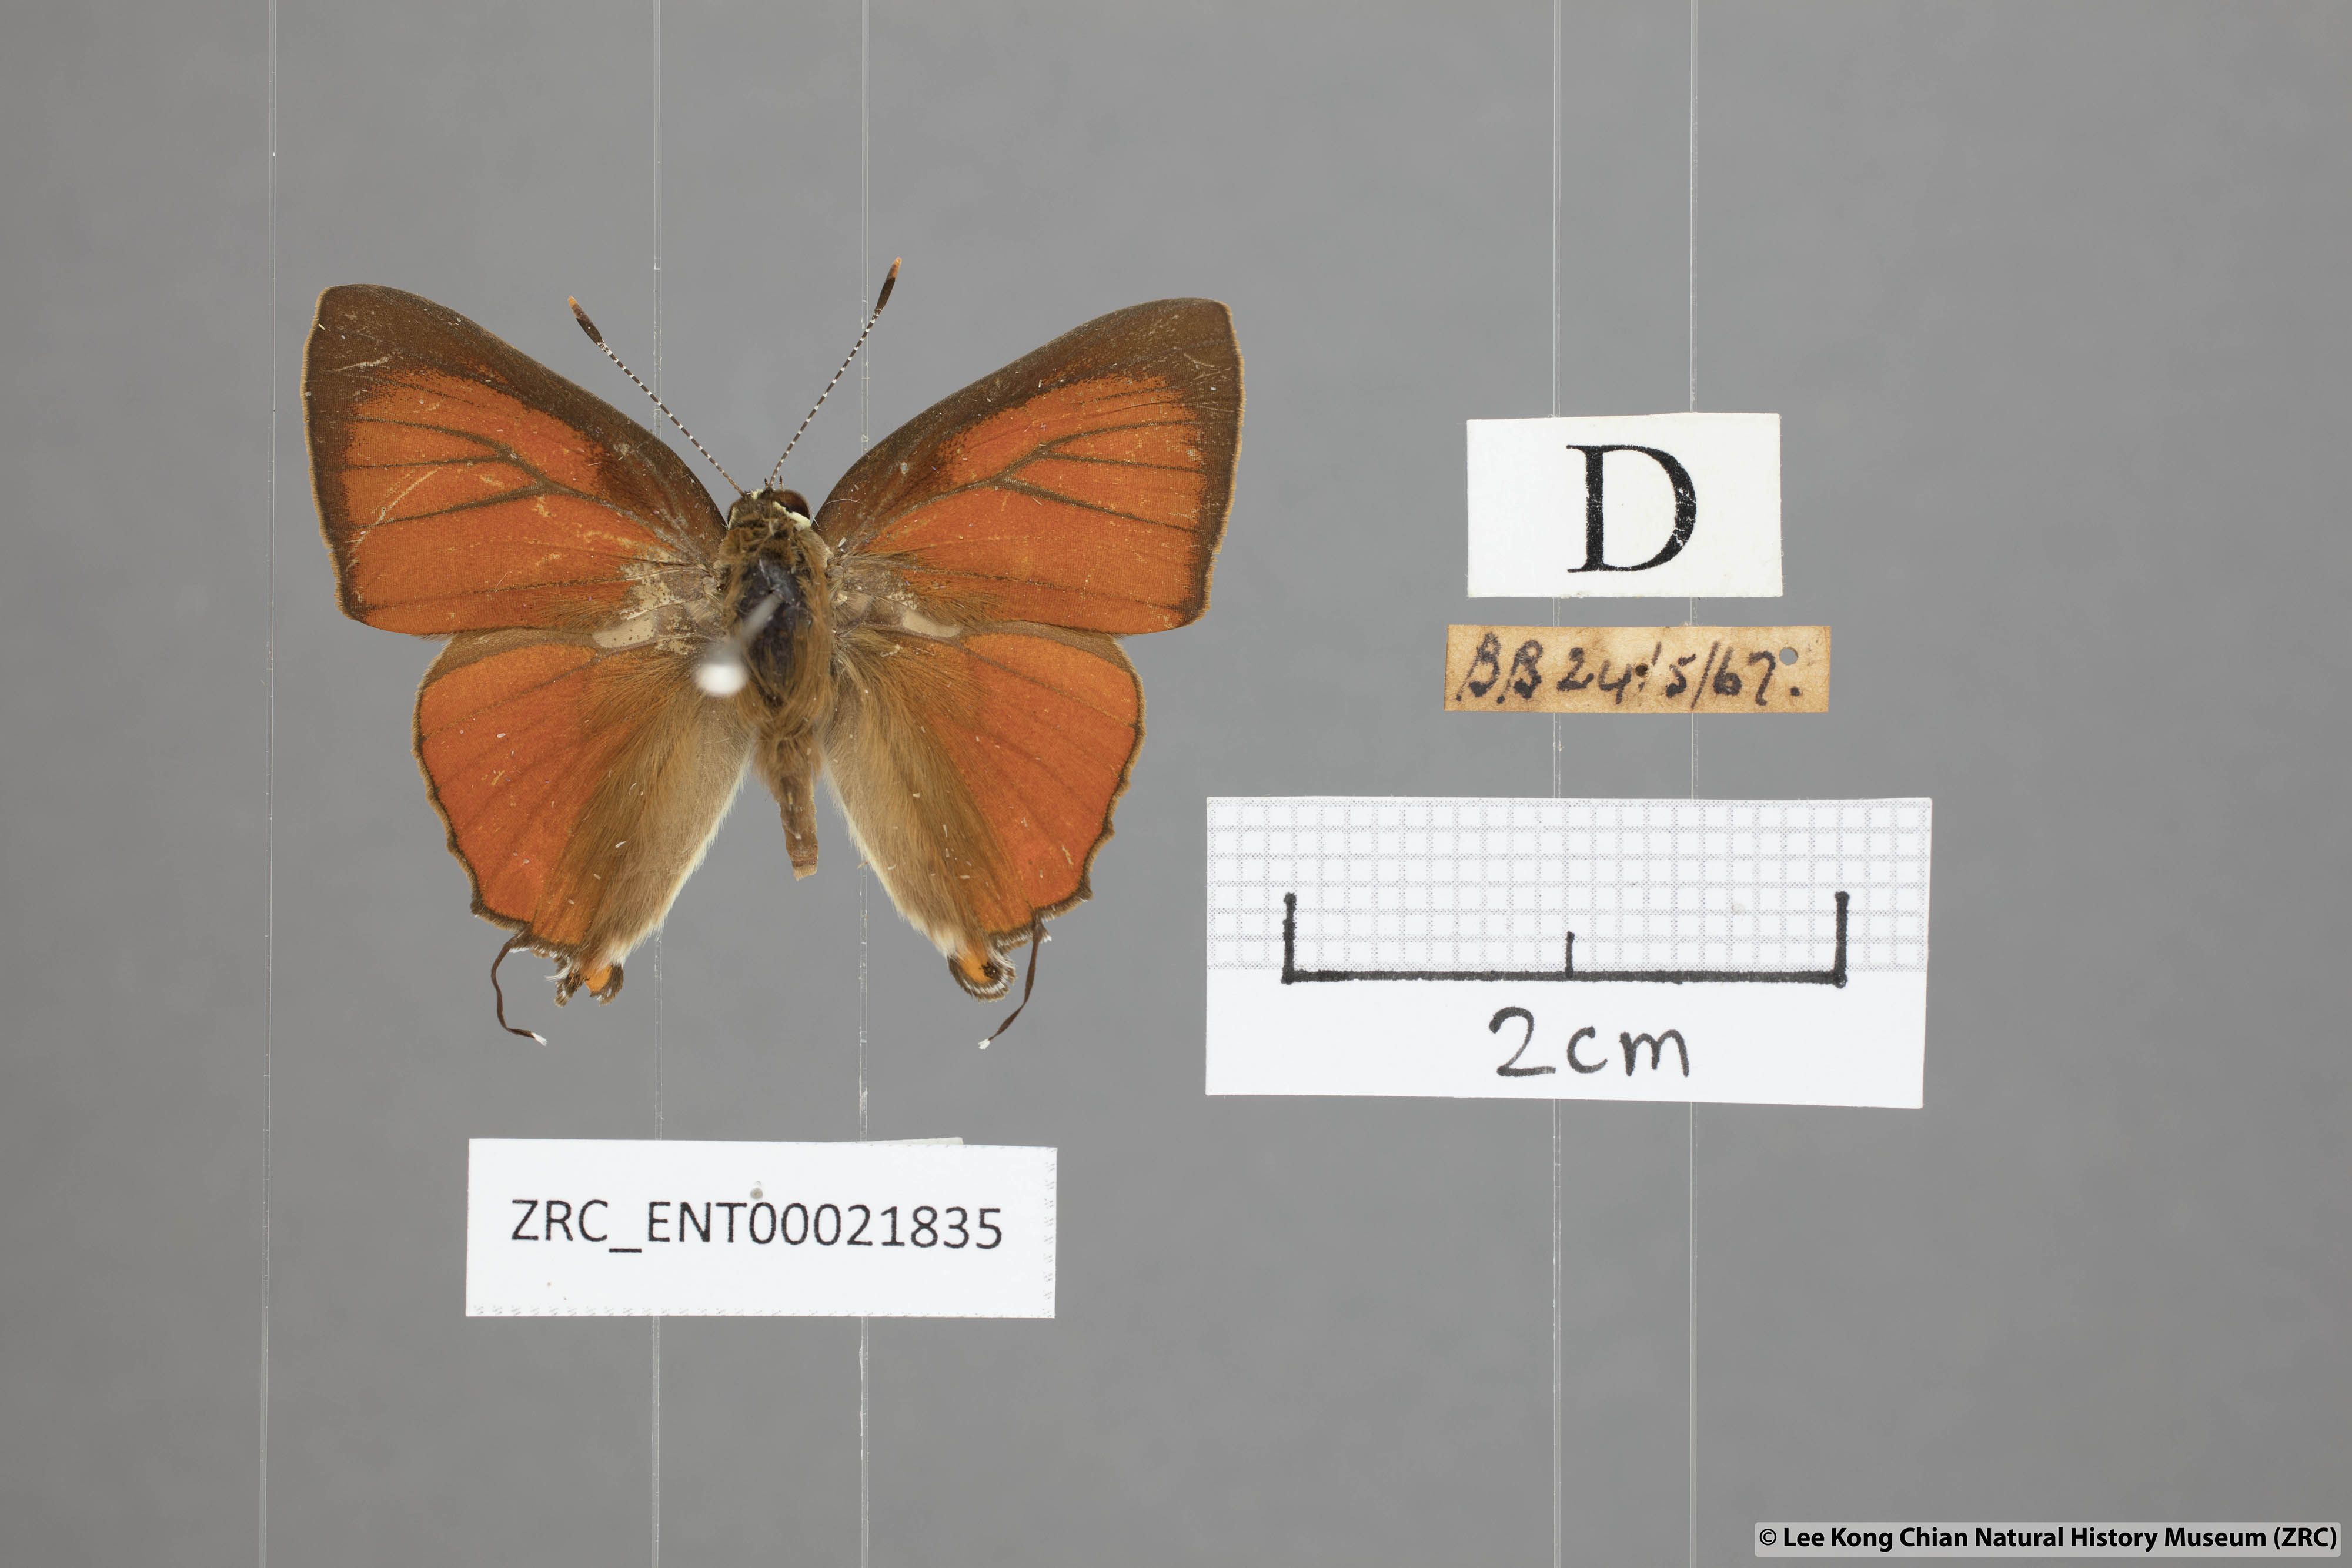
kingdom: Animalia
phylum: Arthropoda
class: Insecta
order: Lepidoptera
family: Lycaenidae
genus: Rapala
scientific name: Rapala iarbas
